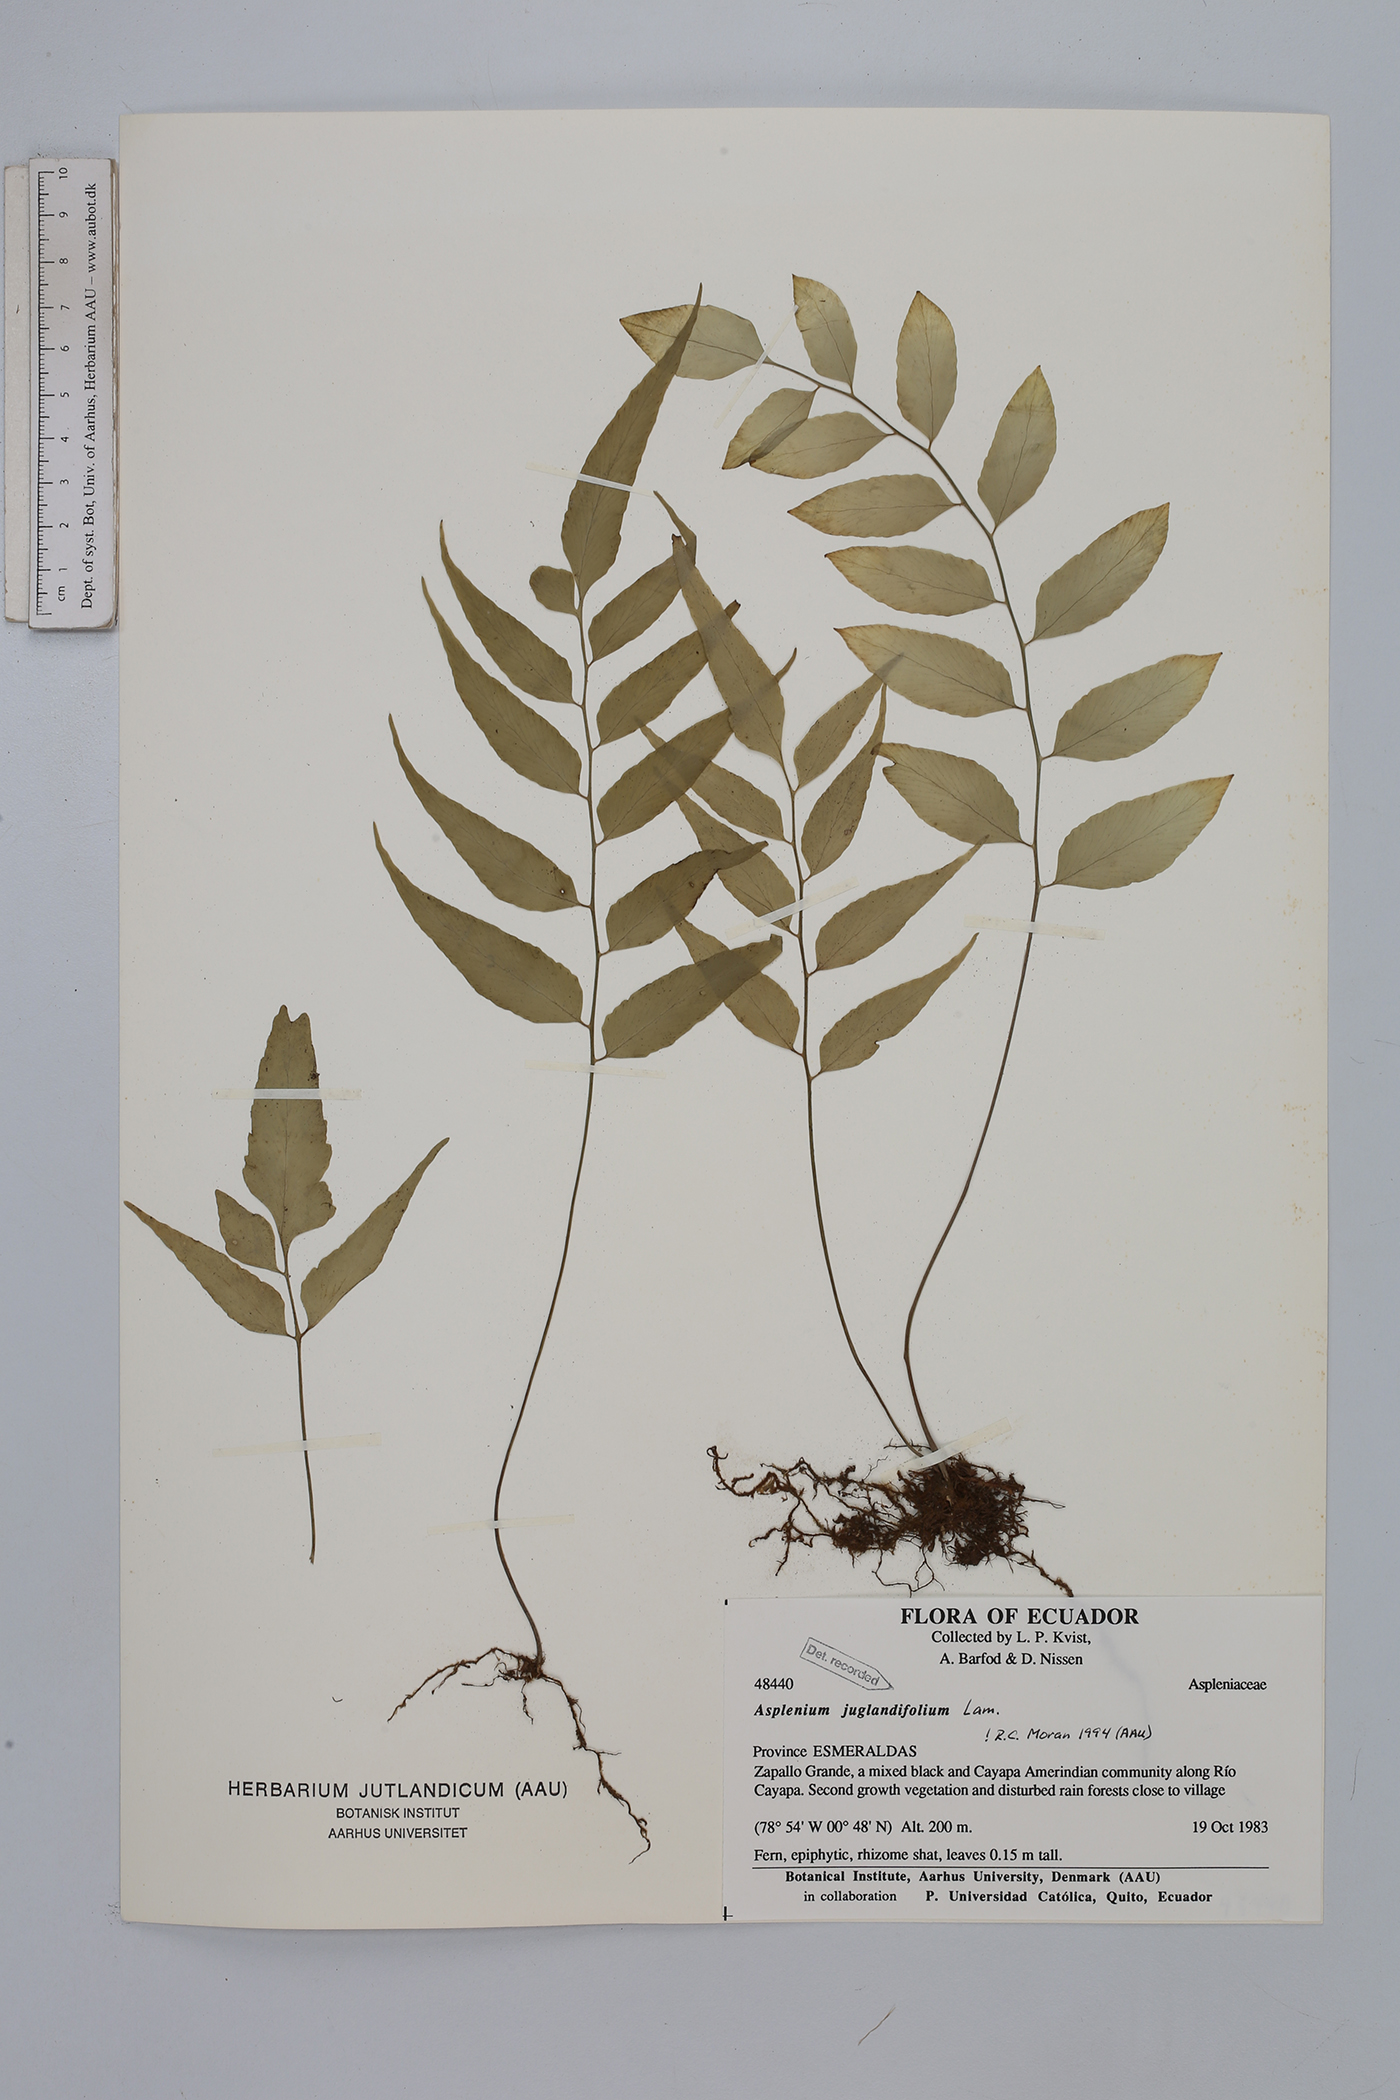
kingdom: Plantae
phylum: Tracheophyta
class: Polypodiopsida
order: Polypodiales
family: Aspleniaceae
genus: Asplenium
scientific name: Asplenium juglandifolium
